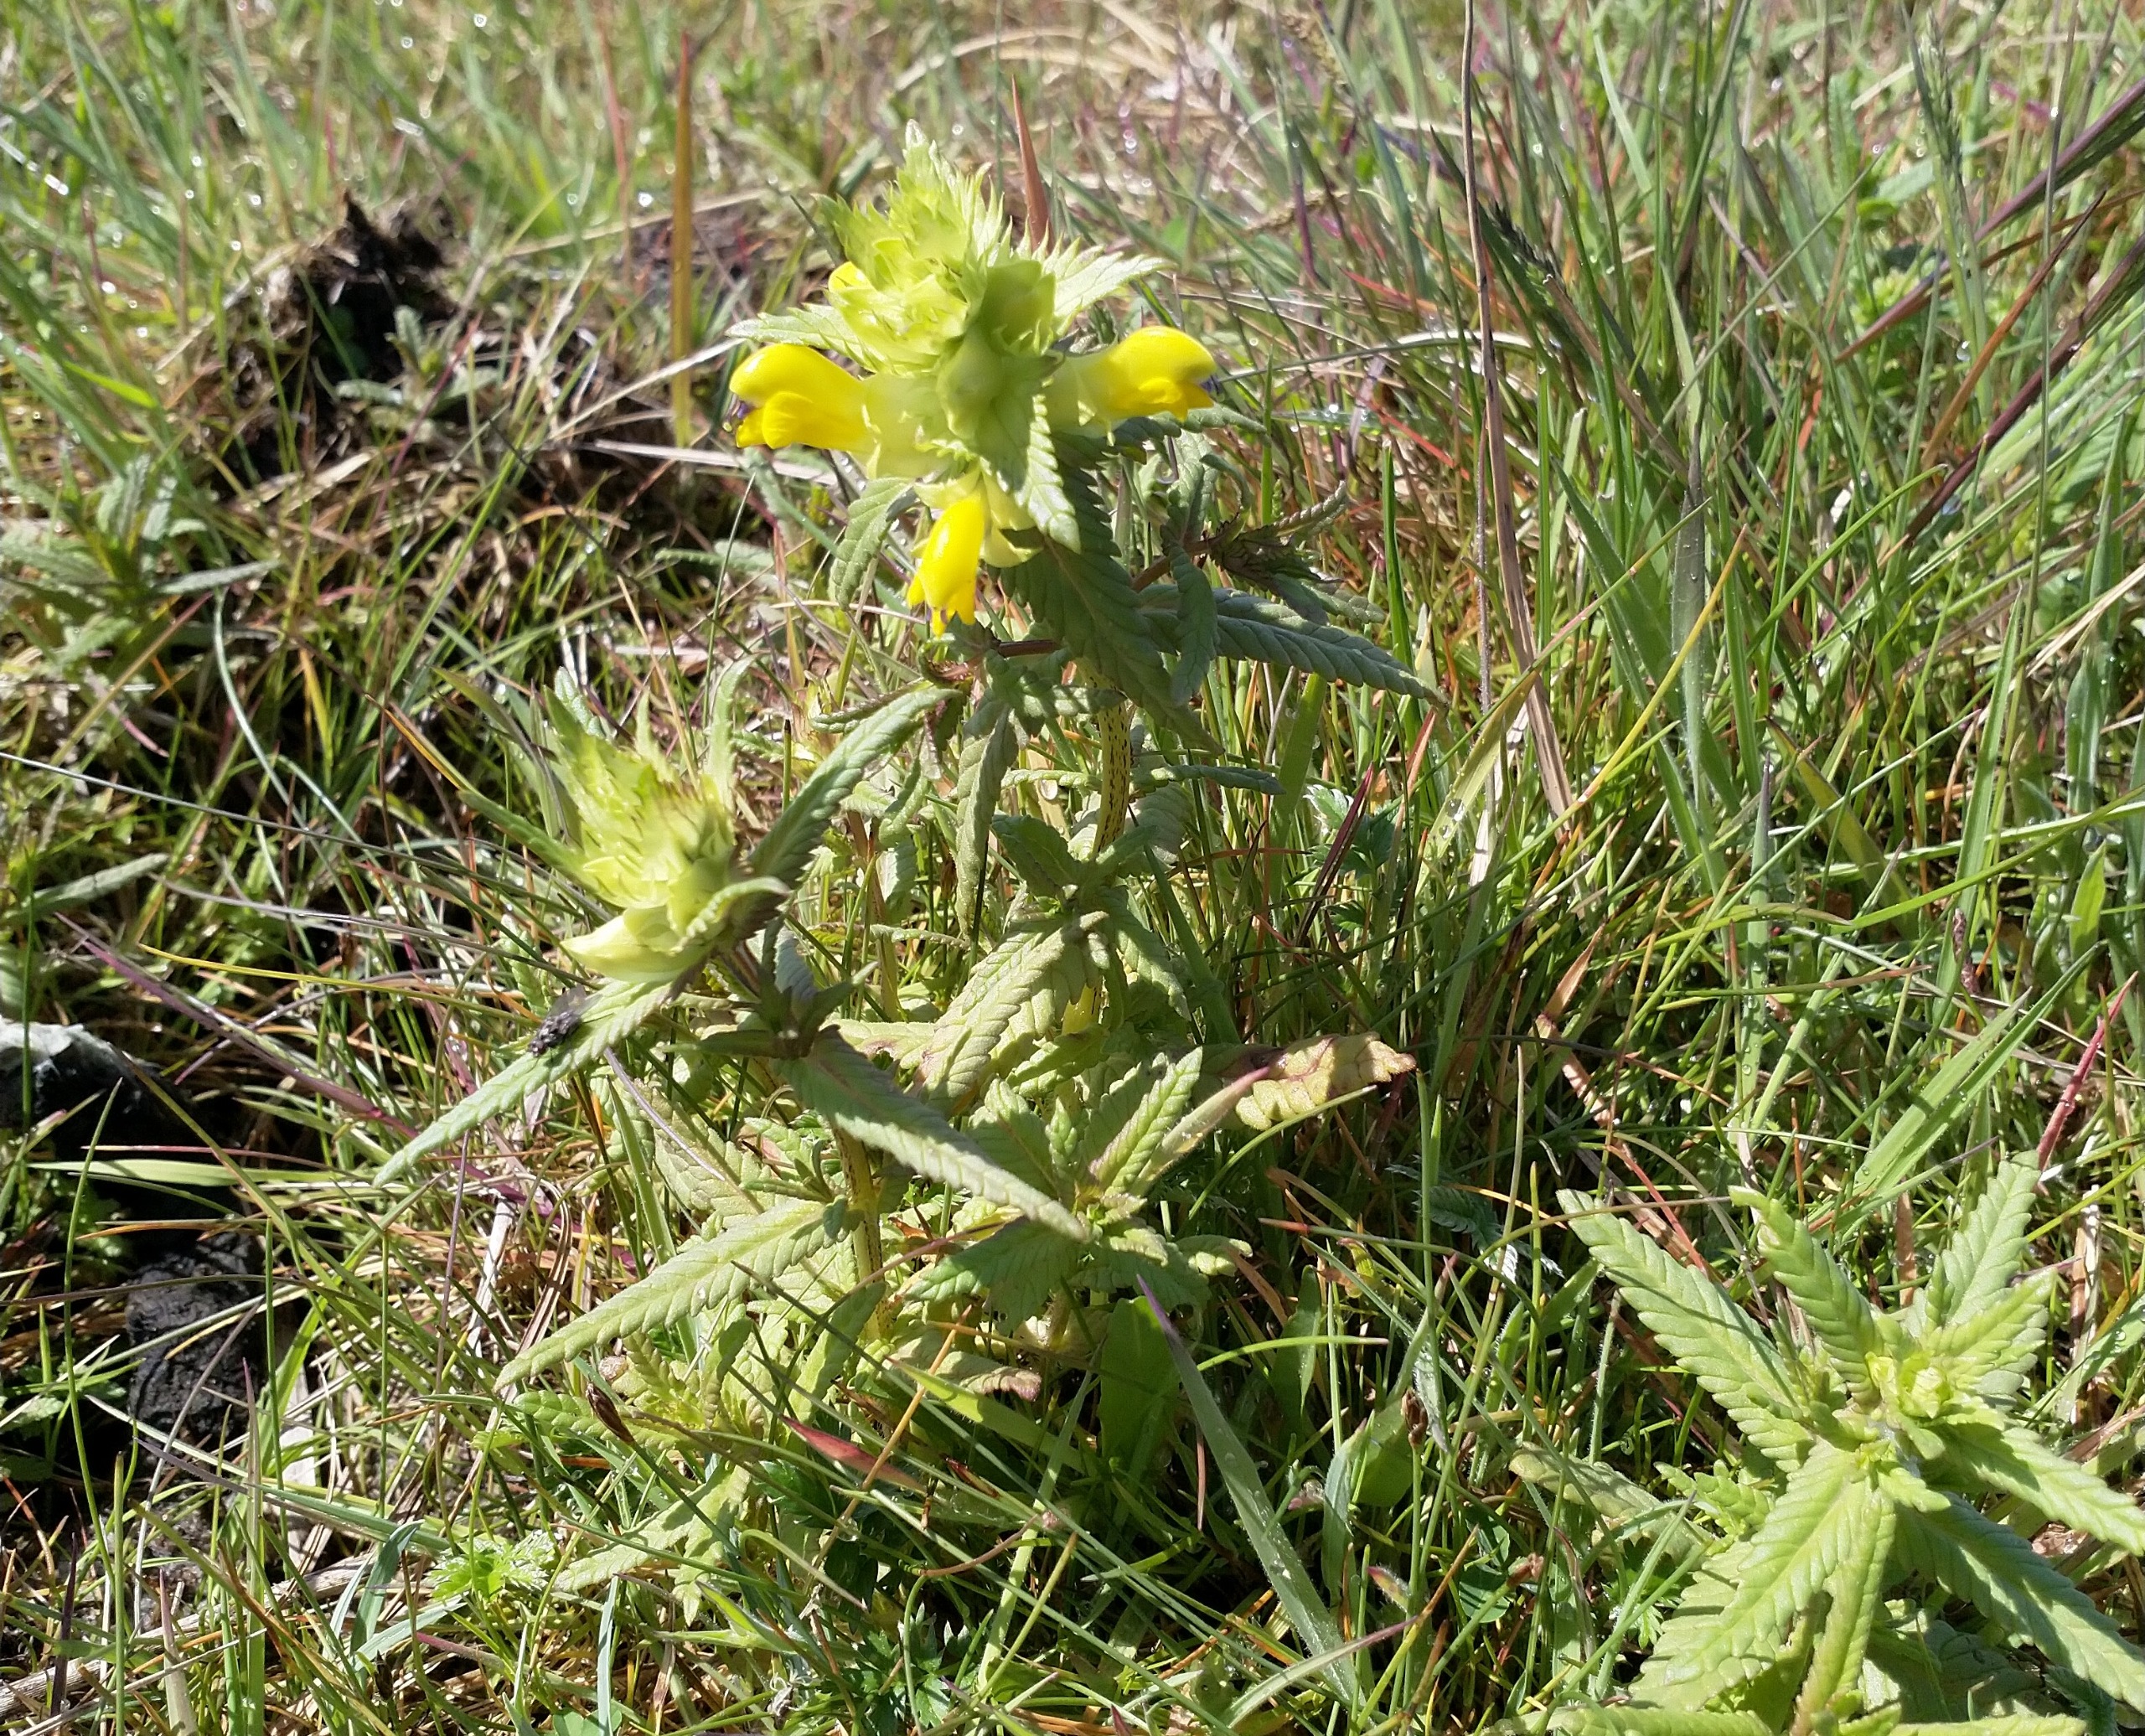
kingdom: Plantae
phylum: Tracheophyta
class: Magnoliopsida
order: Lamiales
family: Orobanchaceae
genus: Rhinanthus
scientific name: Rhinanthus
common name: Stor skjaller
